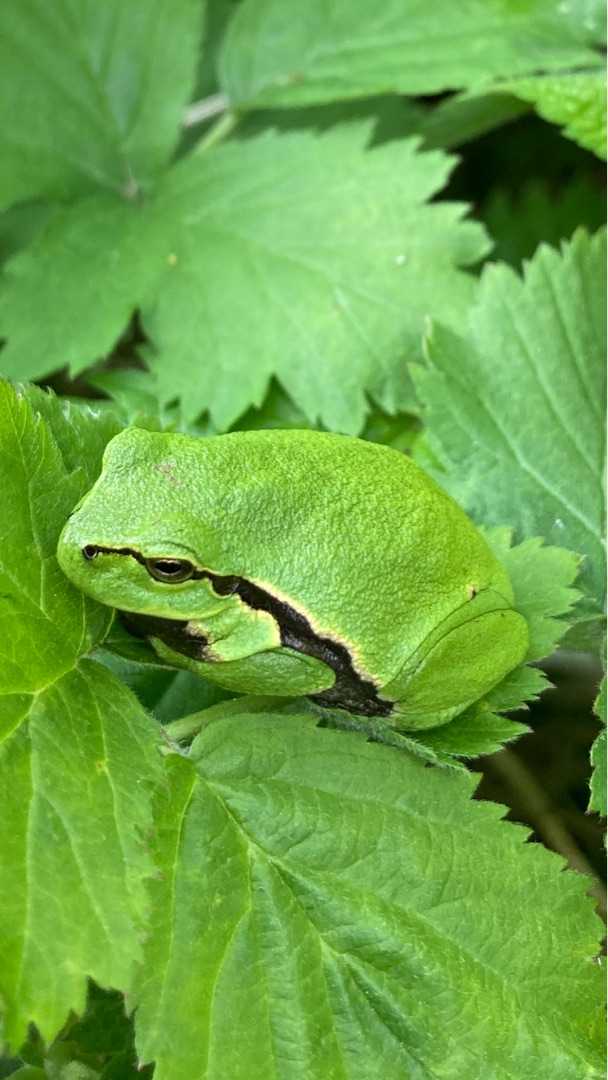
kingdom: Animalia
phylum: Chordata
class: Amphibia
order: Anura
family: Hylidae
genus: Hyla
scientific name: Hyla arborea
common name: Løvfrø
